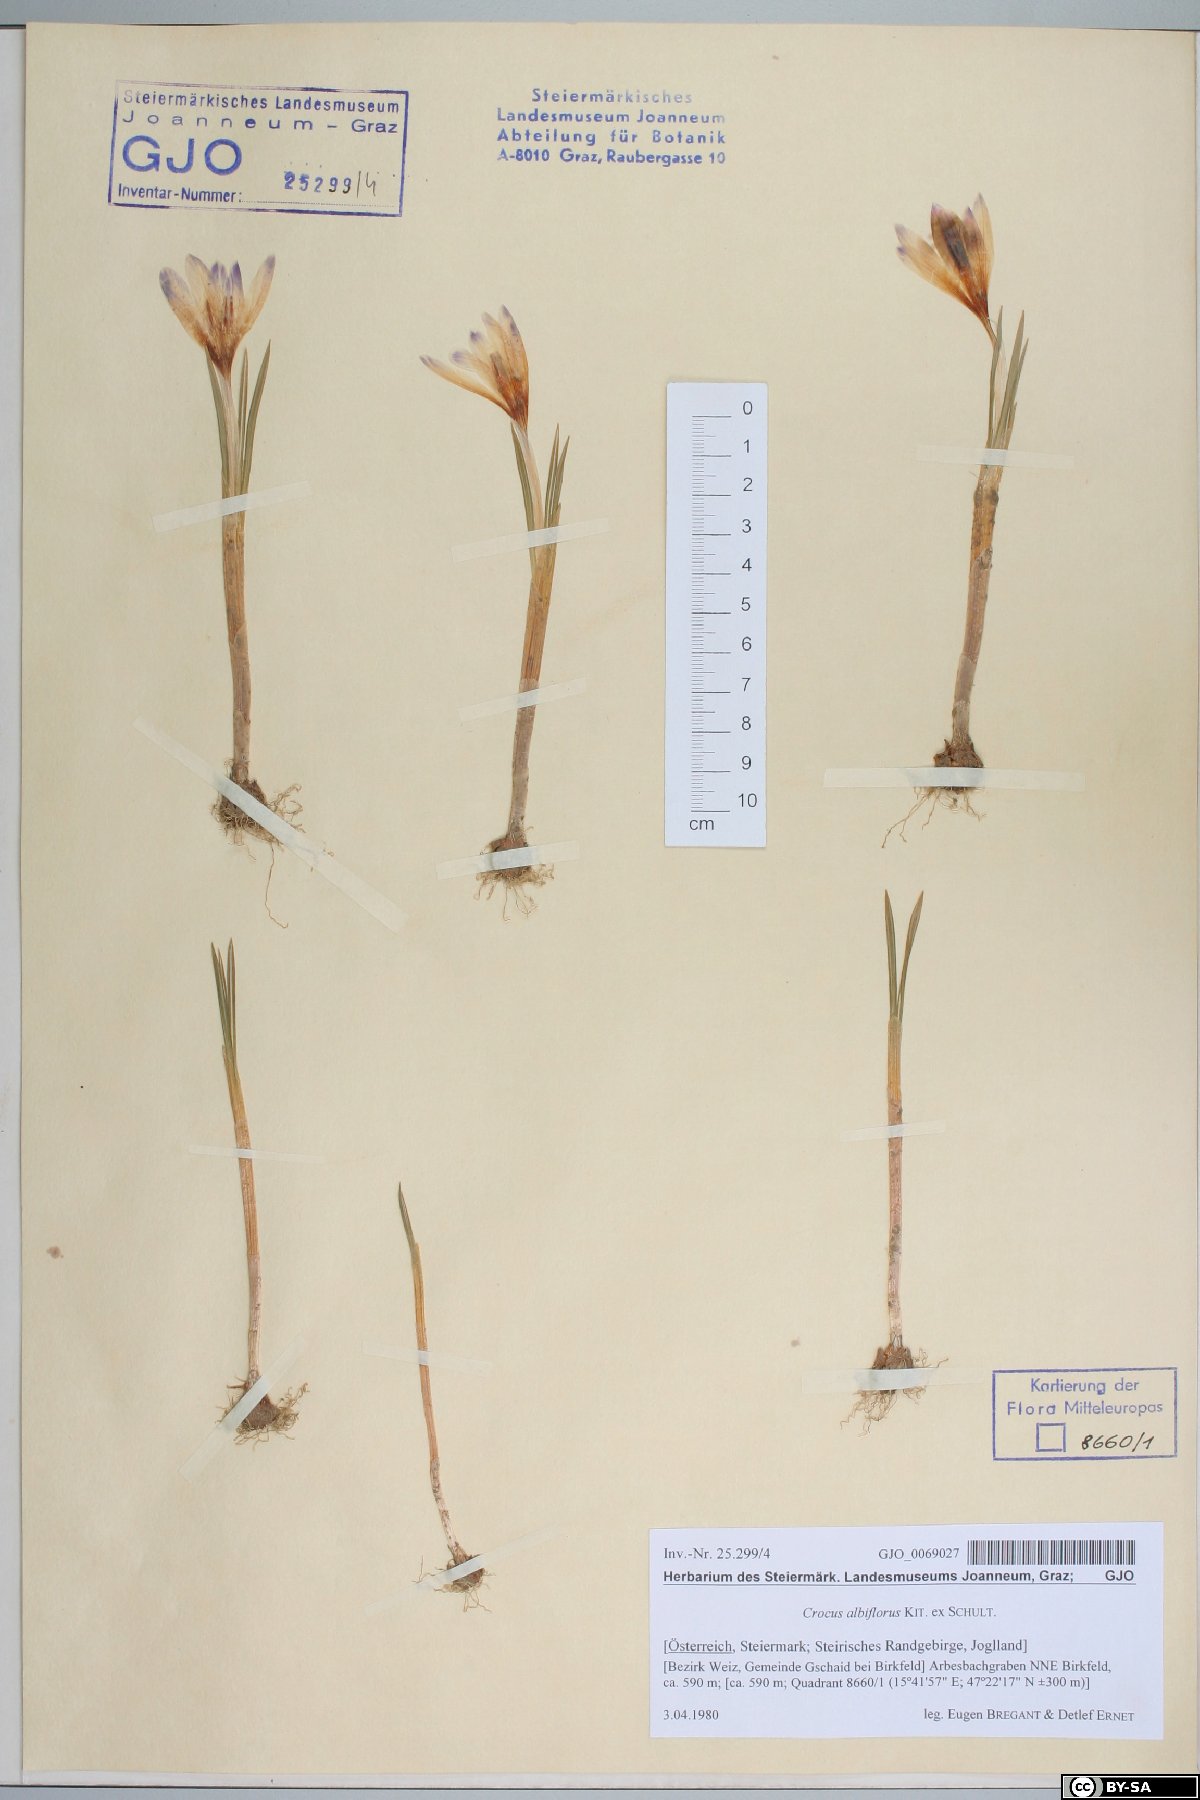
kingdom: Plantae
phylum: Tracheophyta
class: Liliopsida
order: Asparagales
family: Iridaceae
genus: Crocus
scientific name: Crocus vernus
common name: Spring crocus
